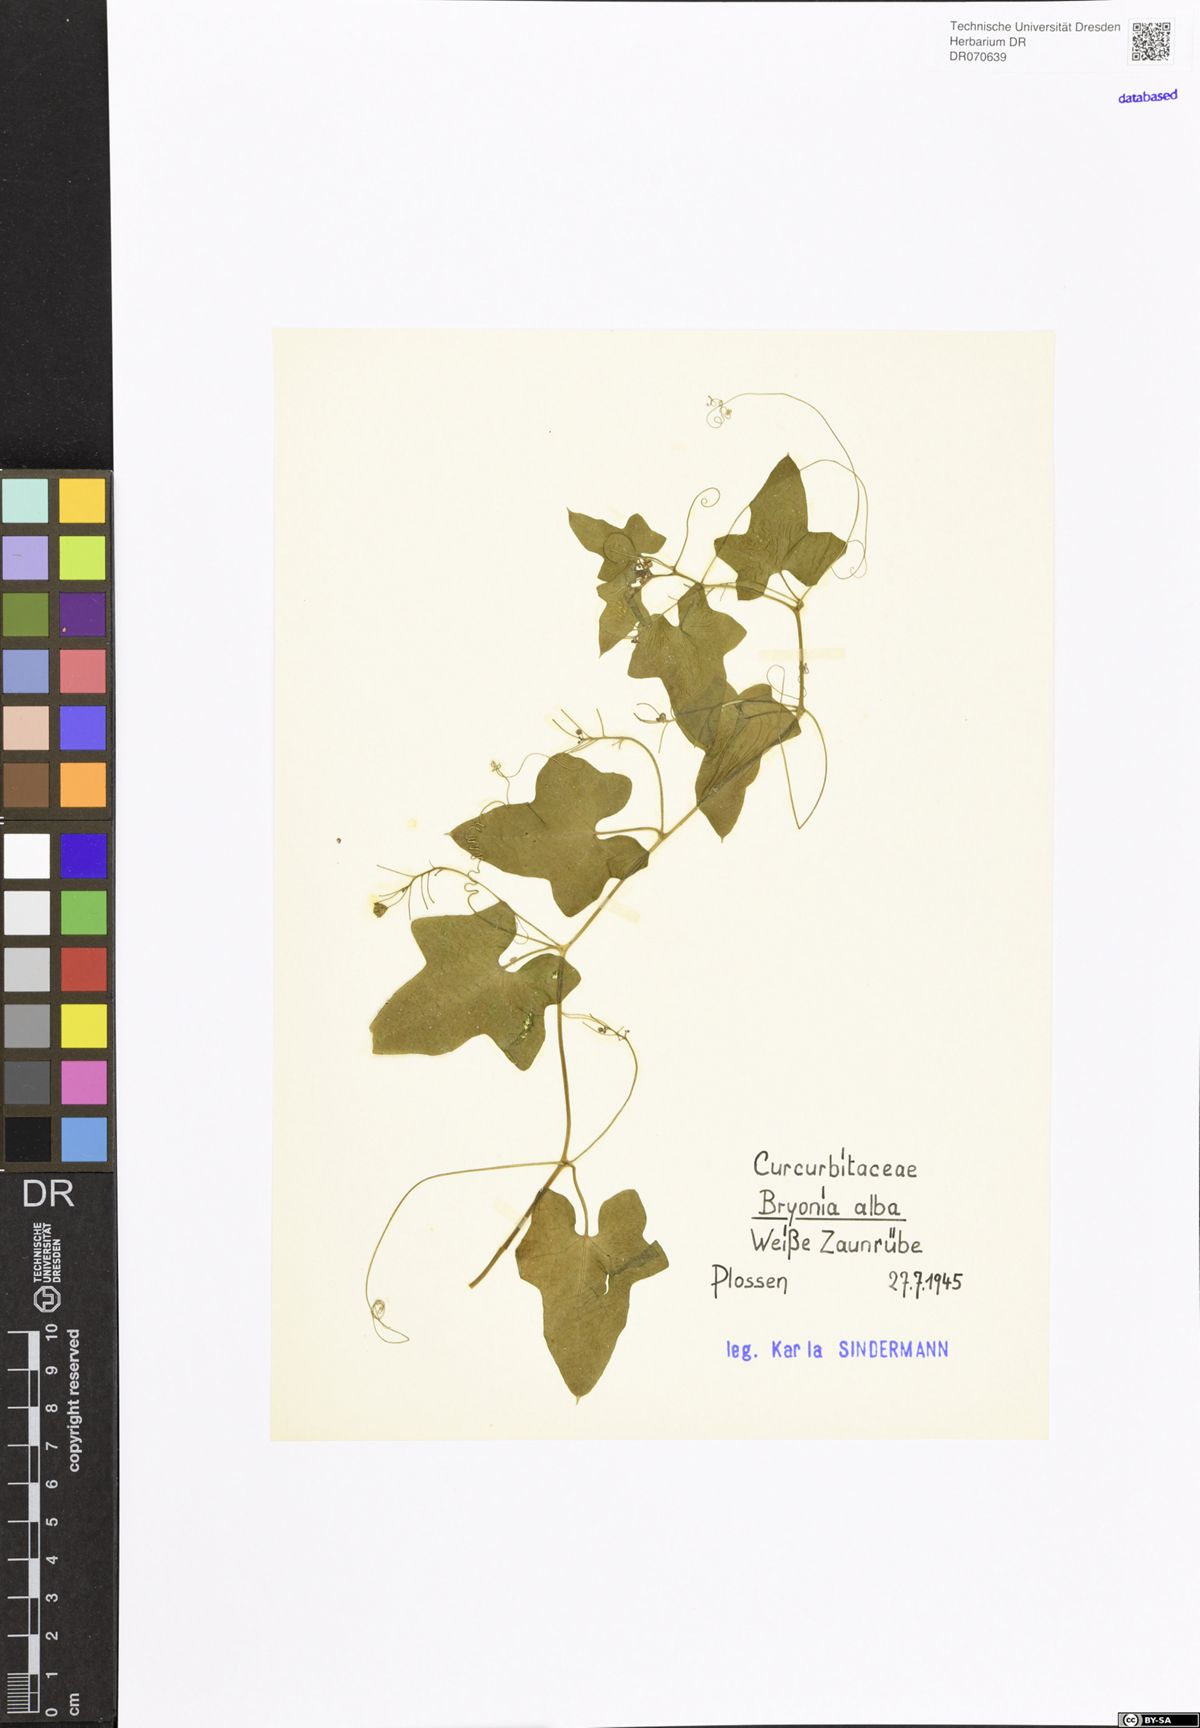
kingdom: Plantae
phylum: Tracheophyta
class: Magnoliopsida
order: Cucurbitales
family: Cucurbitaceae
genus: Bryonia
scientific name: Bryonia alba
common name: White bryony
